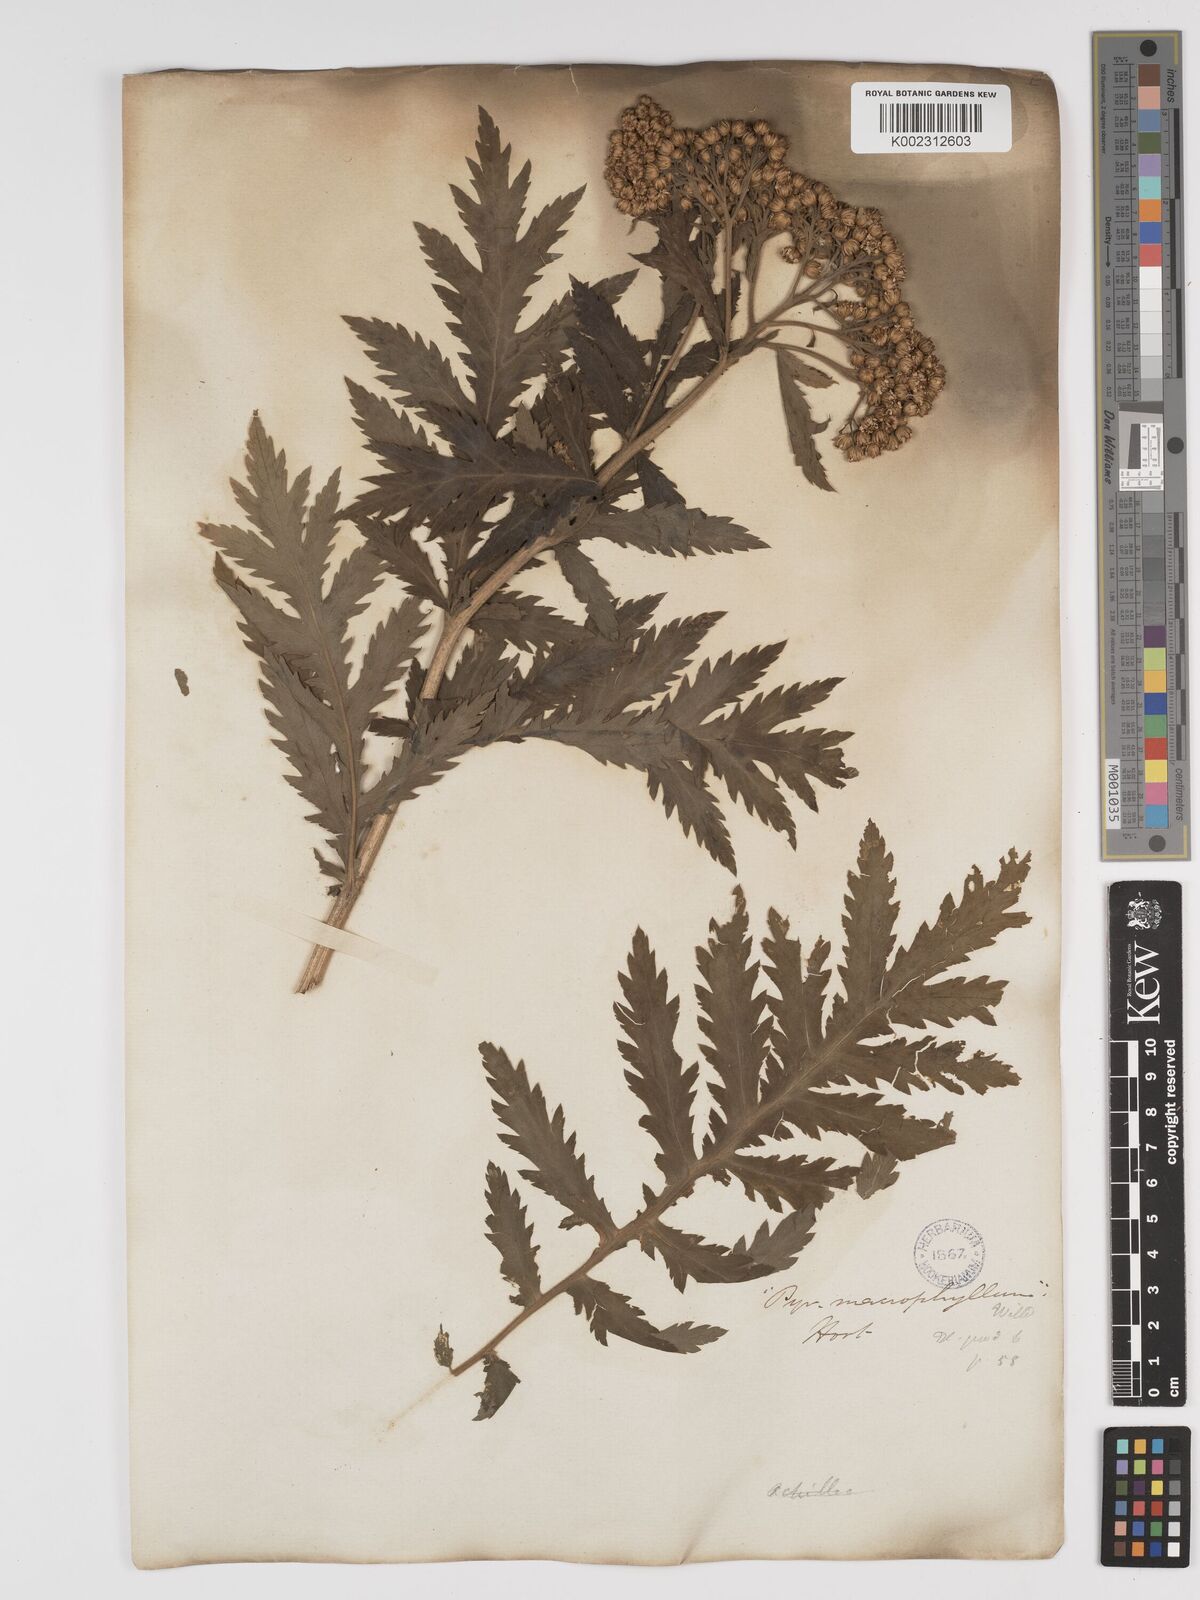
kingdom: Plantae
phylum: Tracheophyta
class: Magnoliopsida
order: Asterales
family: Asteraceae
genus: Tanacetum
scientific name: Tanacetum macrophyllum
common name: Rayed tansy
